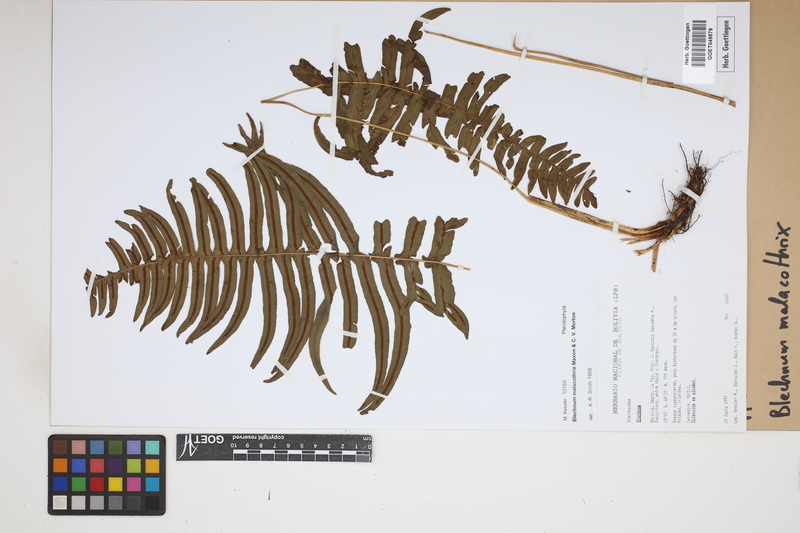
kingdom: Plantae
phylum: Tracheophyta
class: Polypodiopsida
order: Polypodiales
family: Blechnaceae
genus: Blechnum
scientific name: Blechnum malacothrix
